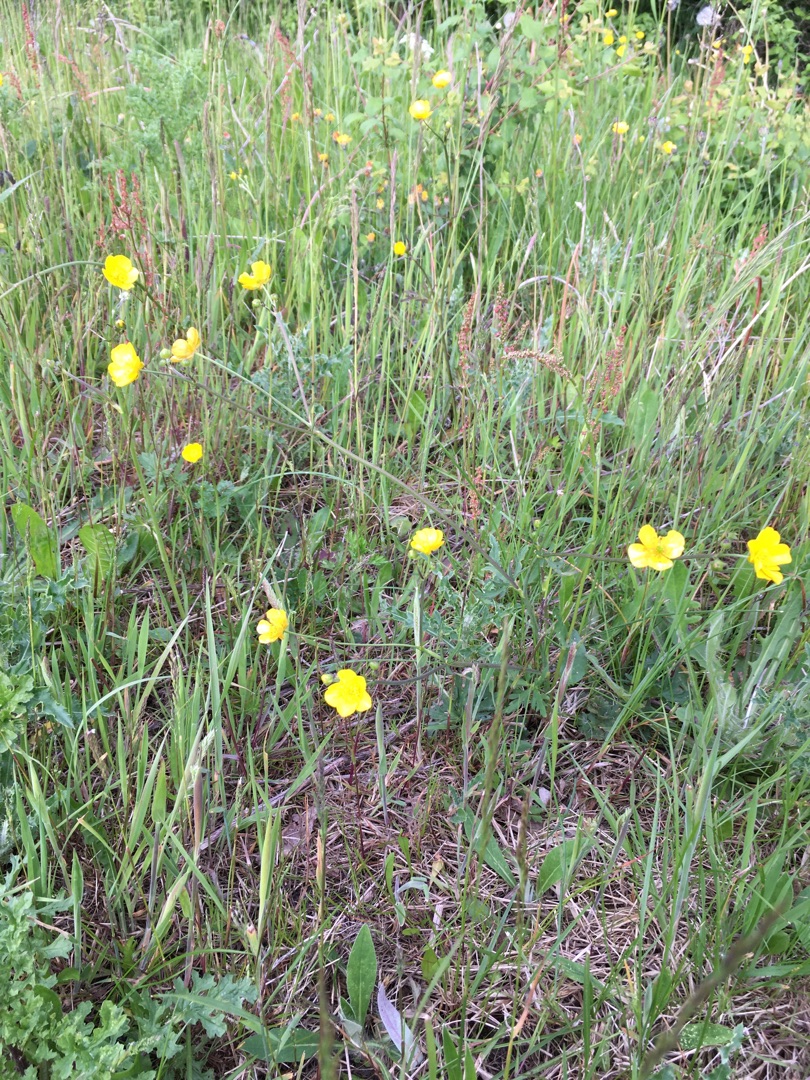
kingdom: Plantae
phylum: Tracheophyta
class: Magnoliopsida
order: Ranunculales
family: Ranunculaceae
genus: Ranunculus
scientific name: Ranunculus acris
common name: Bidende ranunkel
